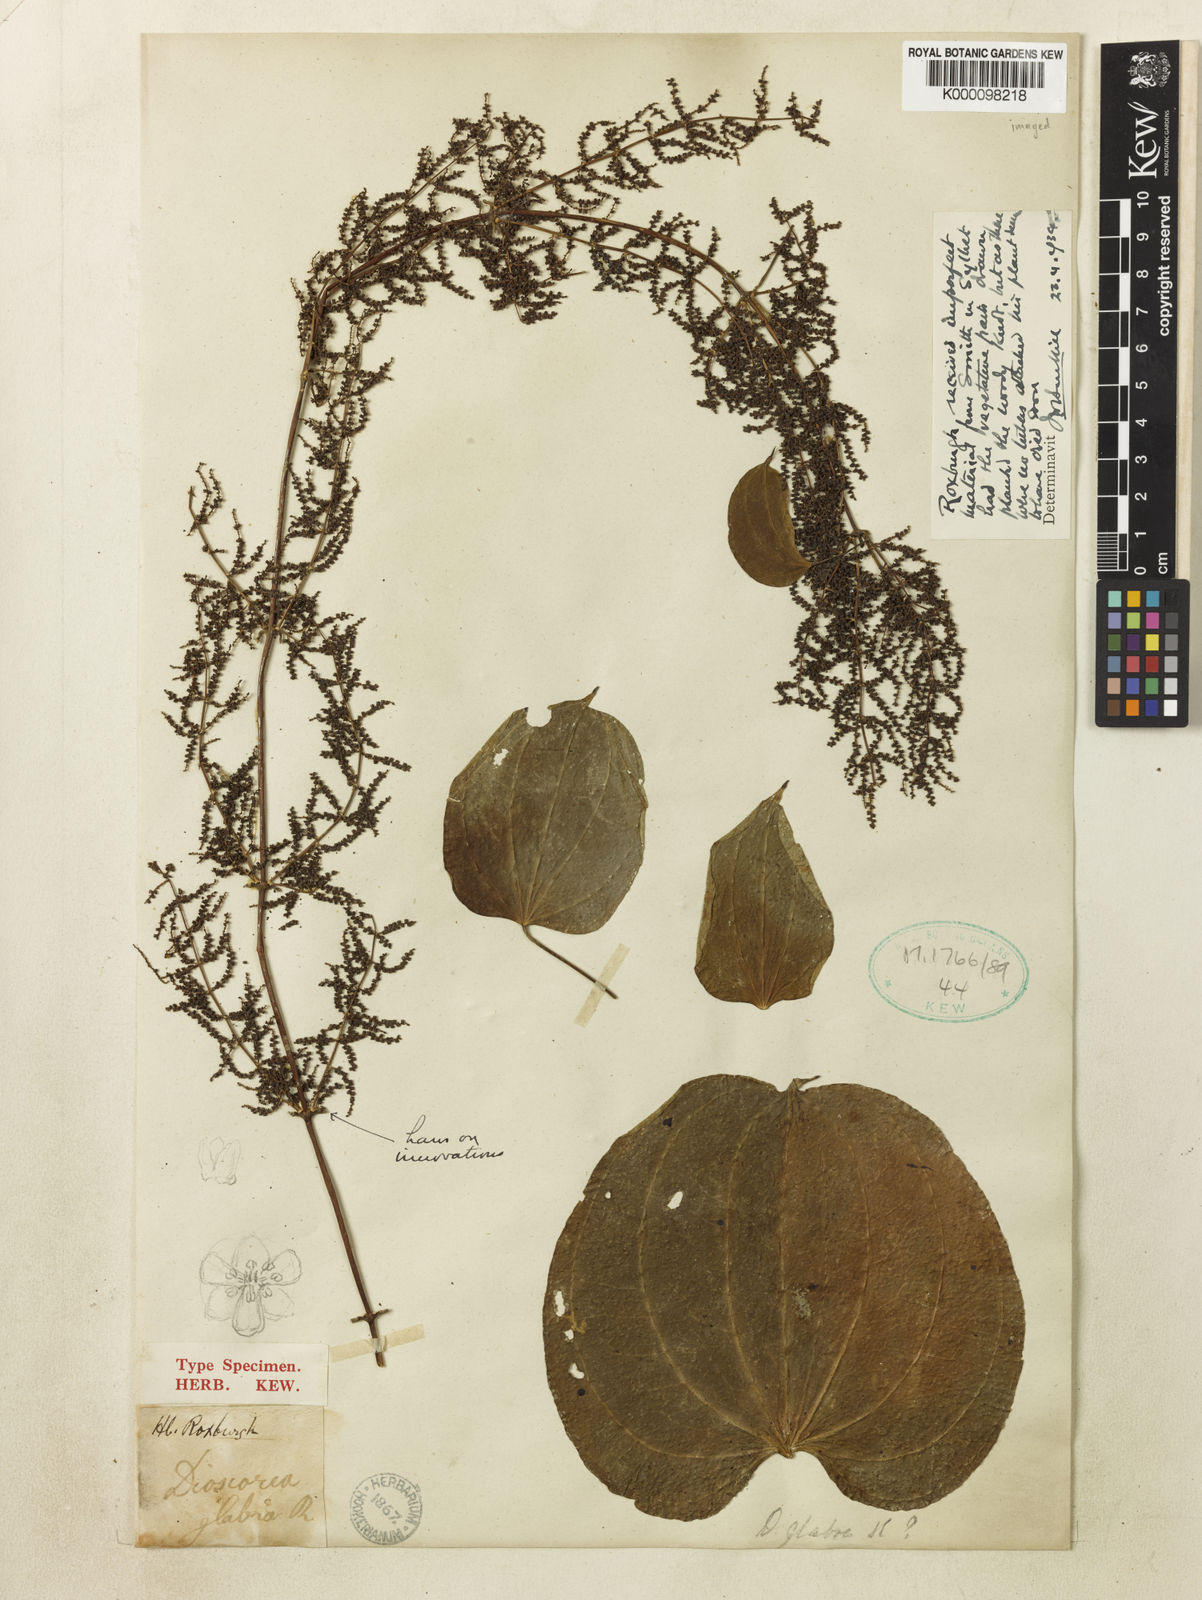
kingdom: Plantae
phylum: Tracheophyta
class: Liliopsida
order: Dioscoreales
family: Dioscoreaceae
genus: Dioscorea
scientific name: Dioscorea glabra
